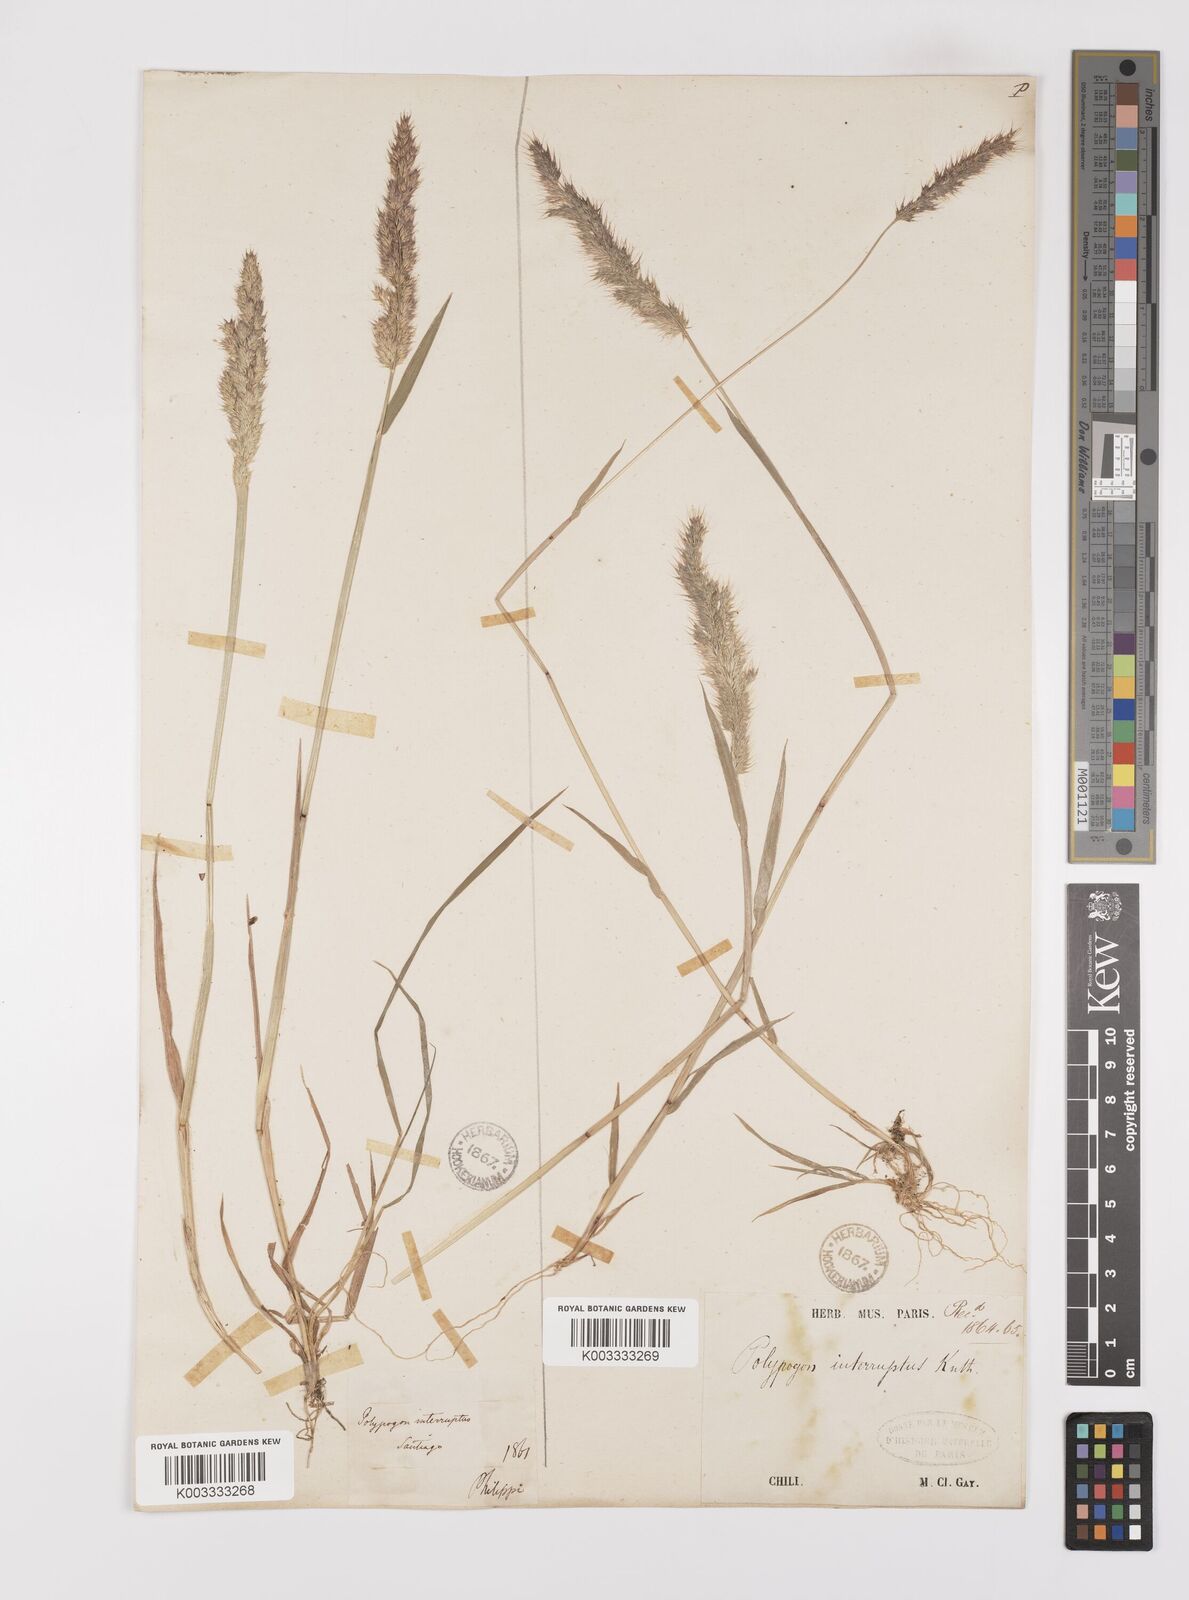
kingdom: Plantae
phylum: Tracheophyta
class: Liliopsida
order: Poales
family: Poaceae
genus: Polypogon
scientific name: Polypogon interruptus
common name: Ditch polypogon
